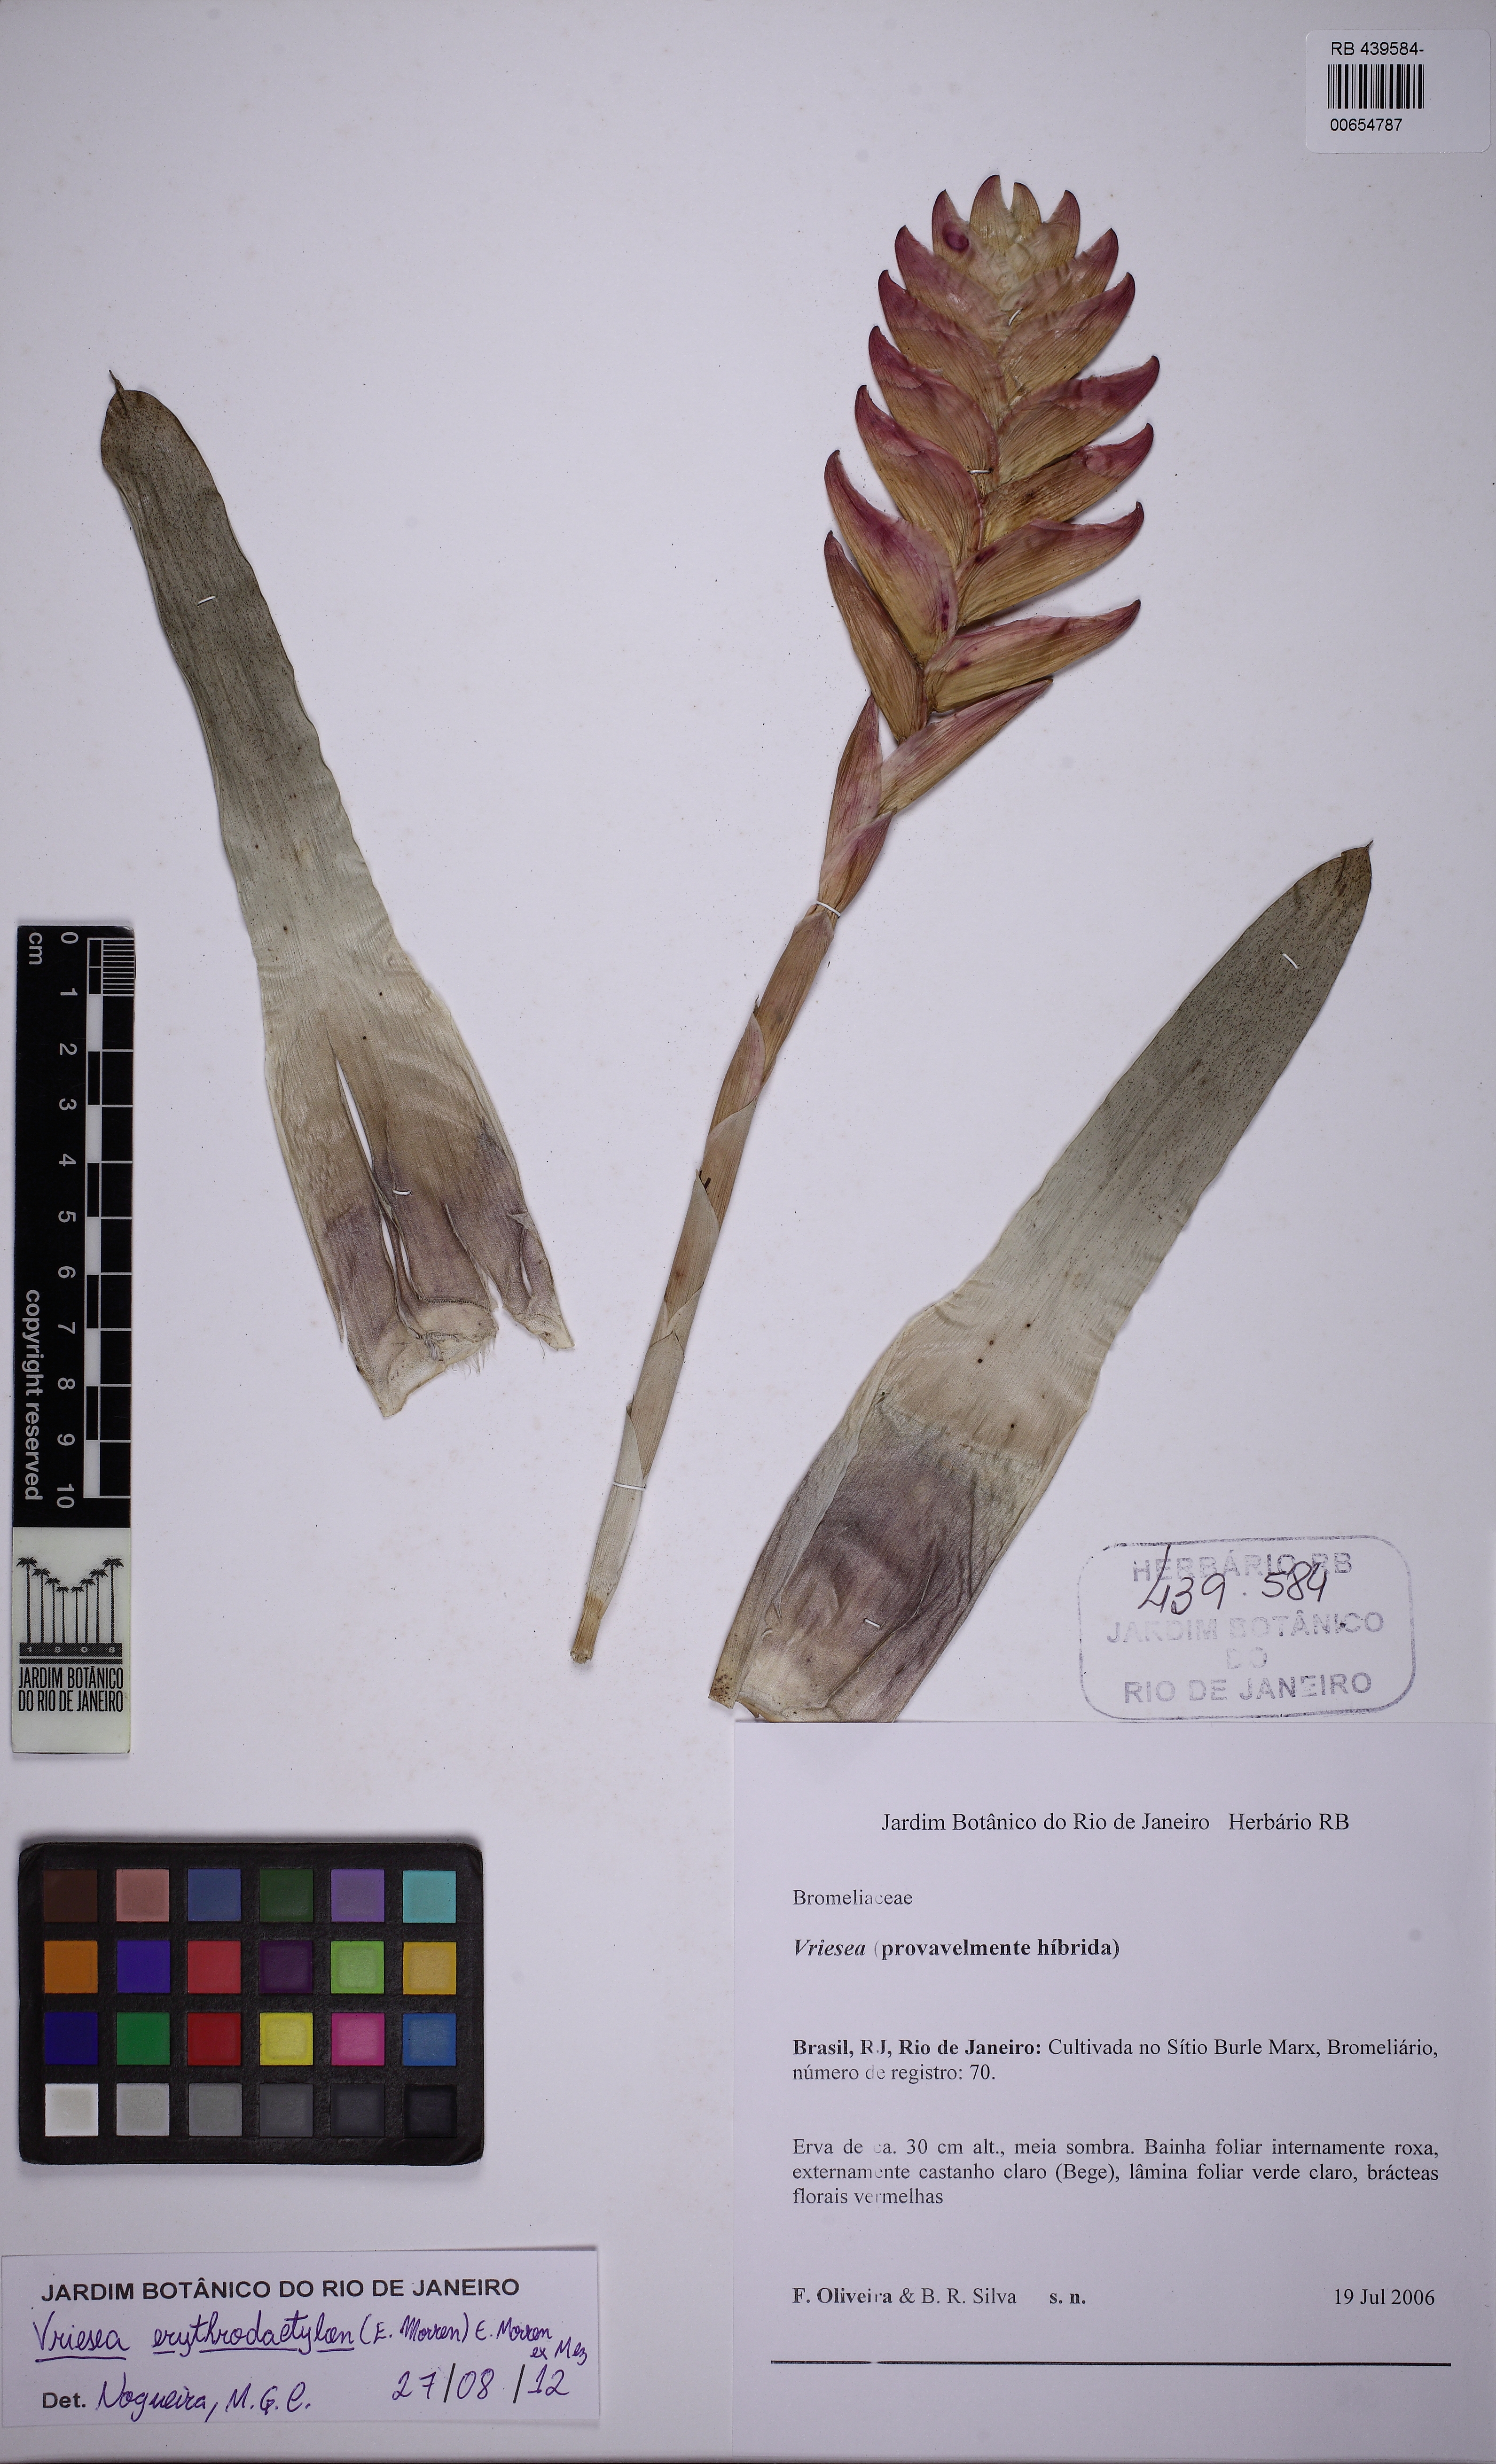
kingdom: Plantae
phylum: Tracheophyta
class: Liliopsida
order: Poales
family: Bromeliaceae
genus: Vriesea
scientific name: Vriesea erythrodactylon
